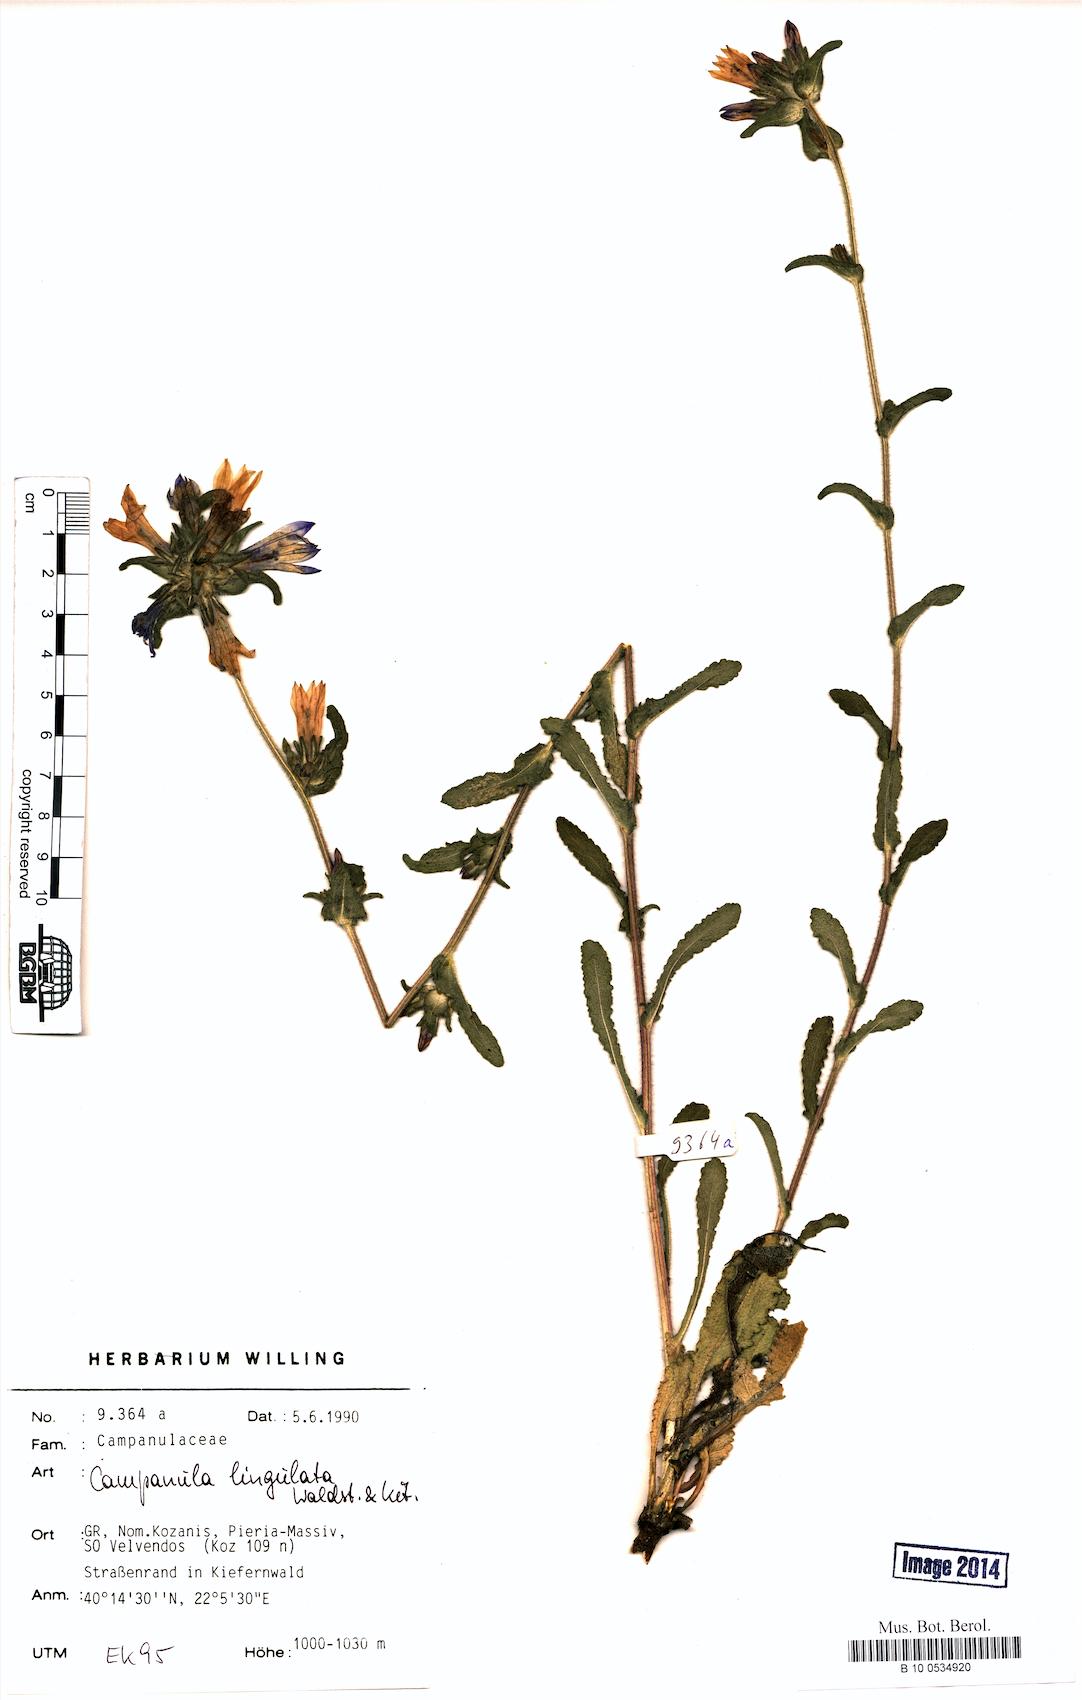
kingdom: Plantae
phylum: Tracheophyta
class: Magnoliopsida
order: Asterales
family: Campanulaceae
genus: Campanula
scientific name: Campanula lingulata
